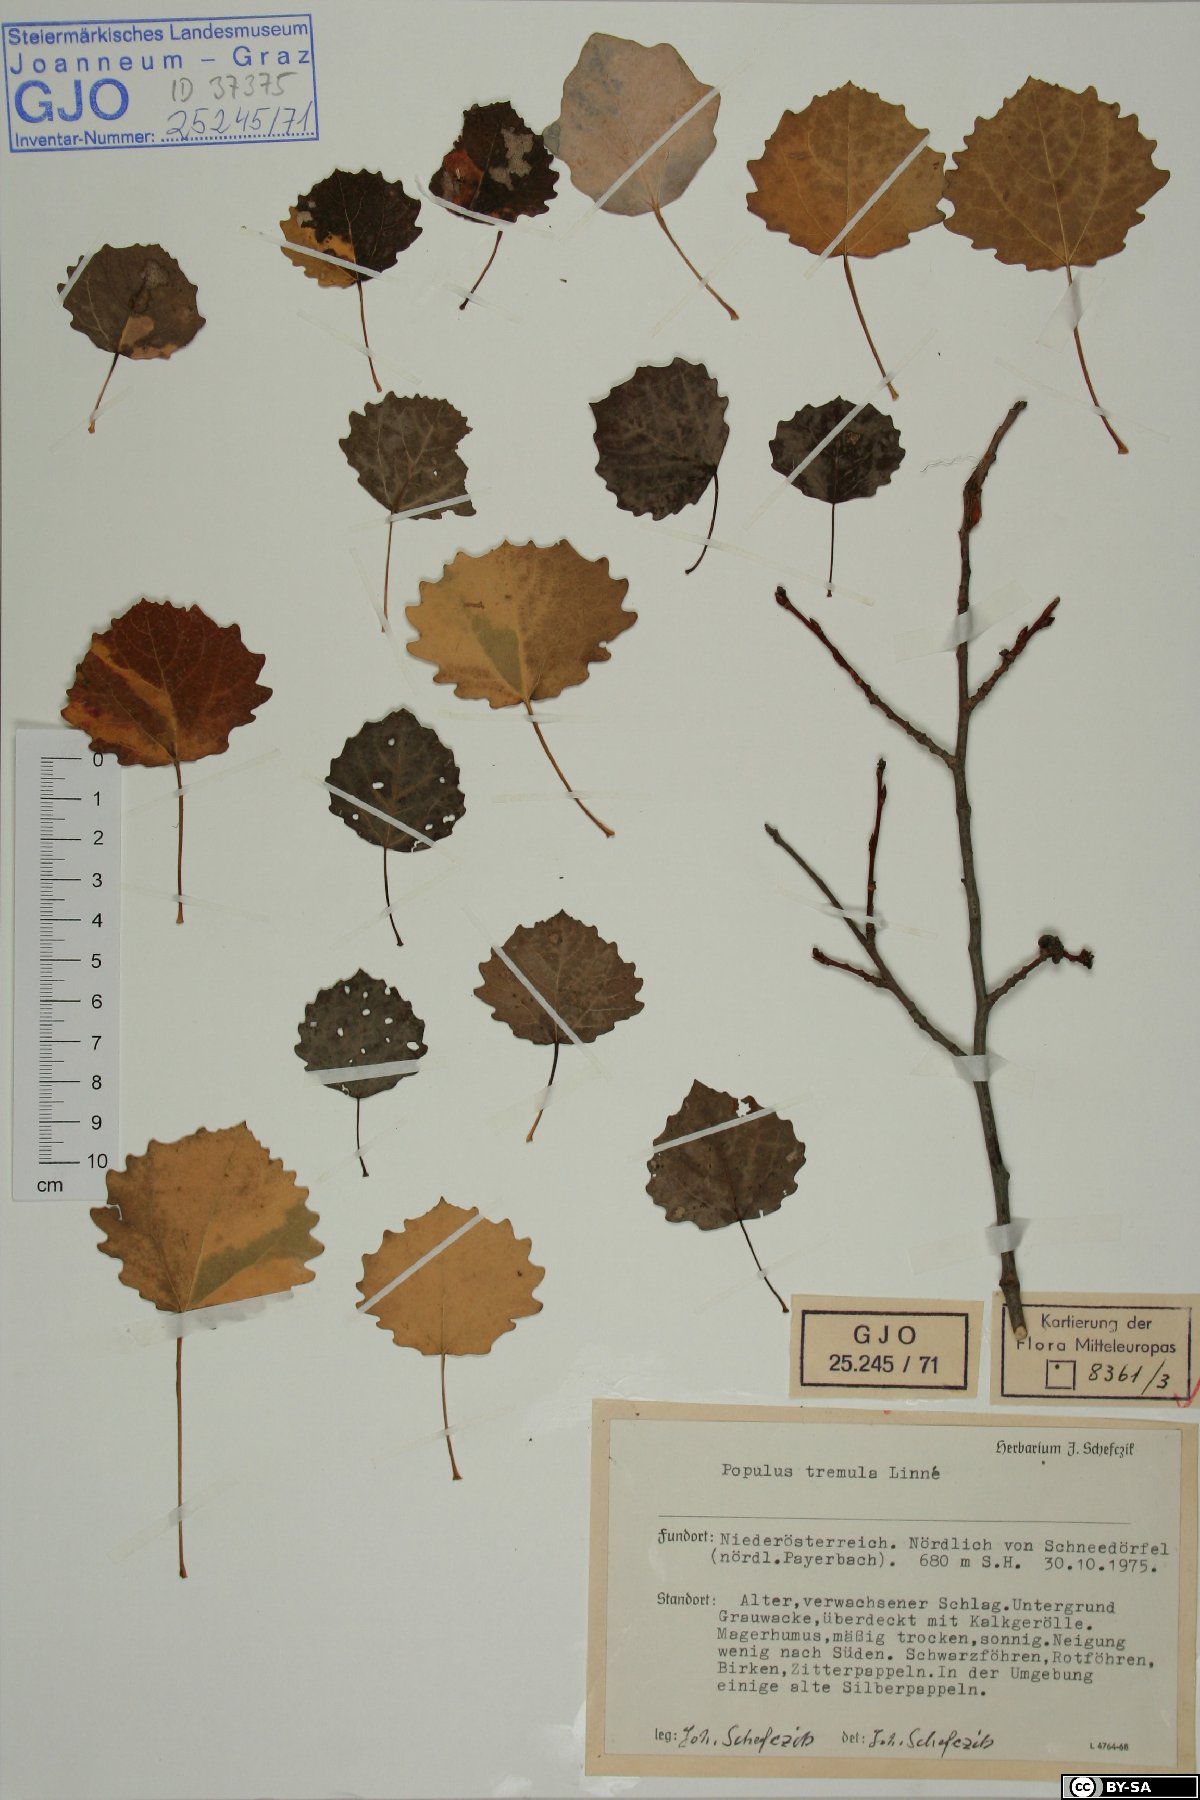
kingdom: Plantae
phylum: Tracheophyta
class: Magnoliopsida
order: Malpighiales
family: Salicaceae
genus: Populus
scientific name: Populus tremula
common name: European aspen
